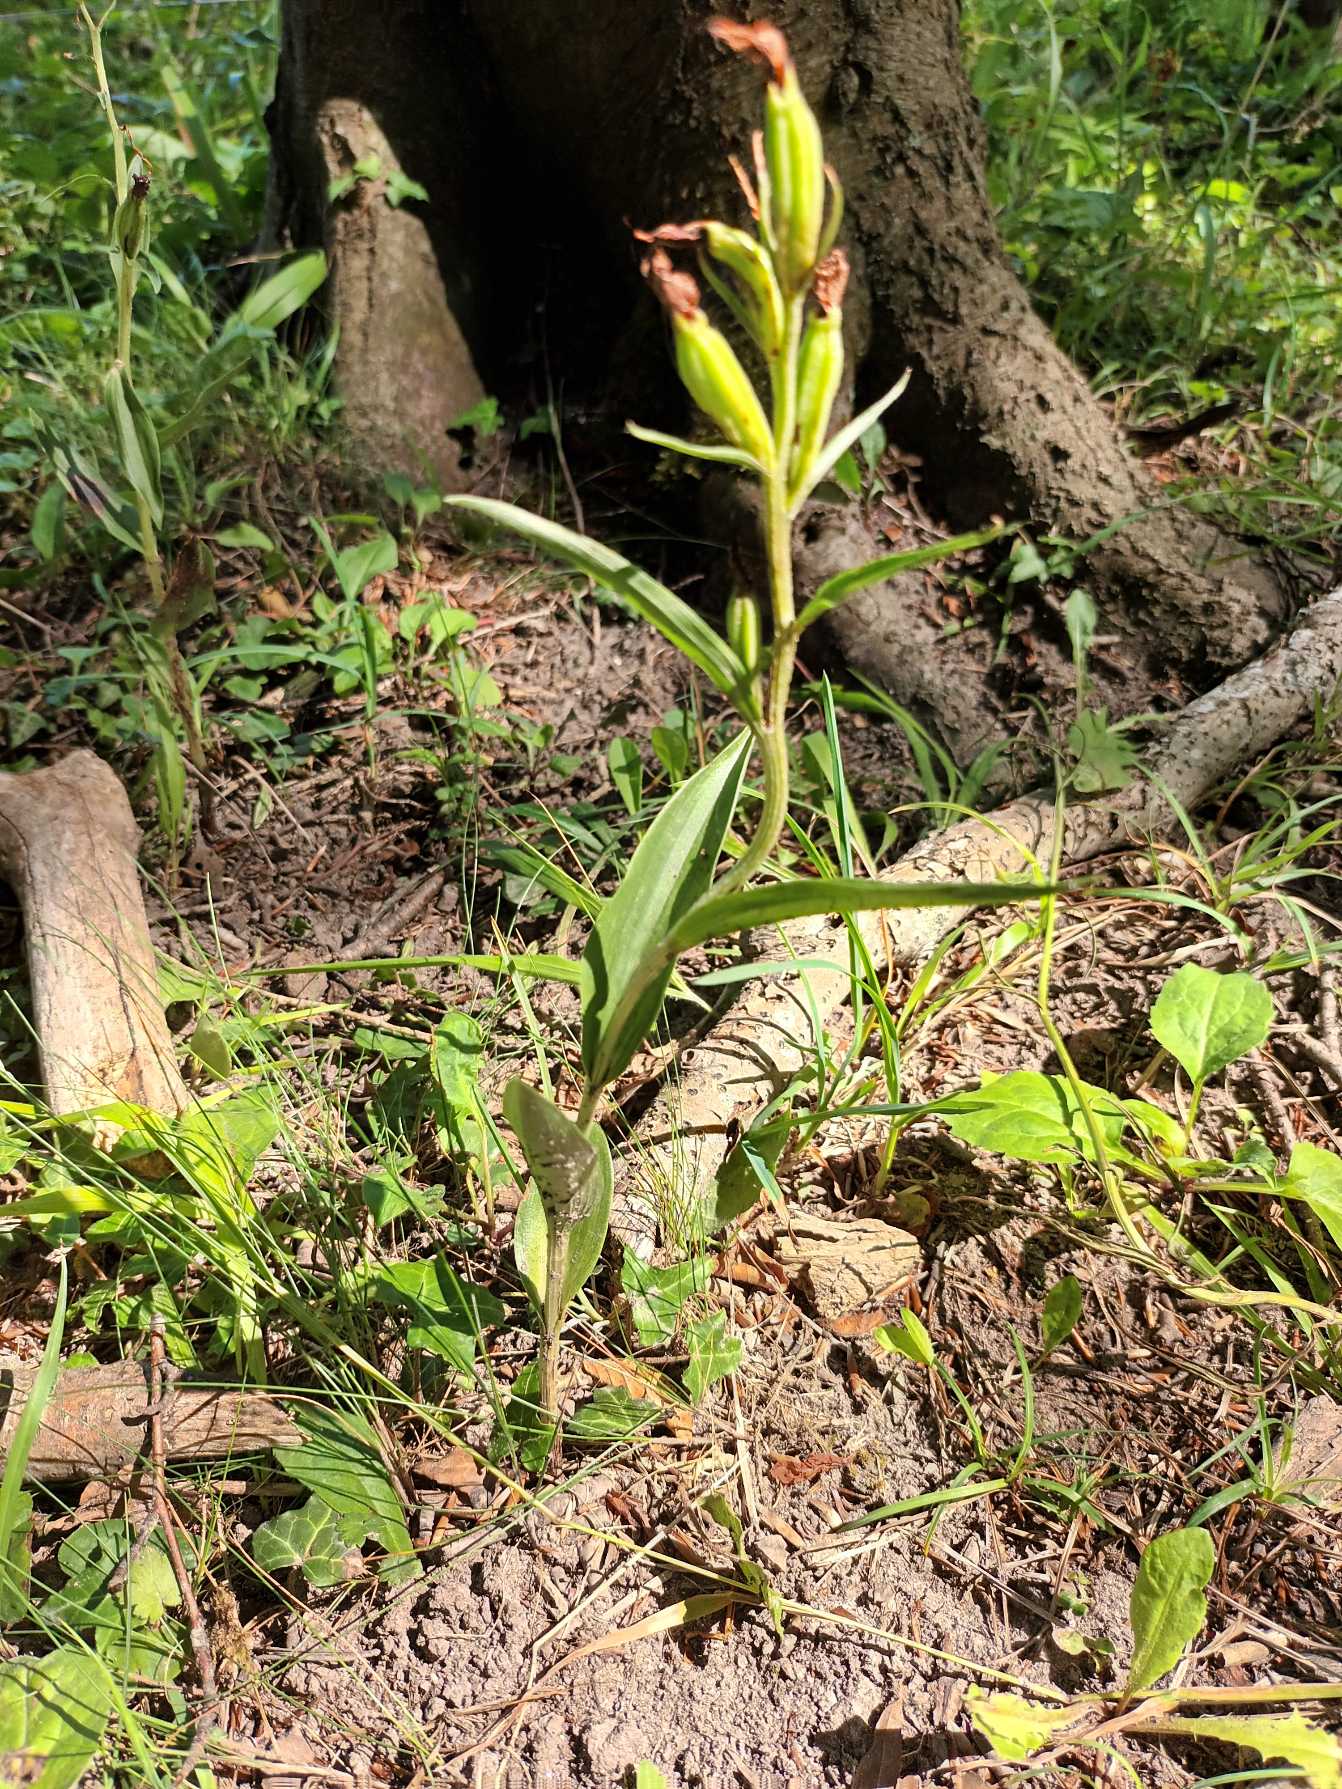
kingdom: Plantae
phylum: Tracheophyta
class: Liliopsida
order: Asparagales
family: Orchidaceae
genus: Cephalanthera
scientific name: Cephalanthera rubra
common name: Rød skovlilje
